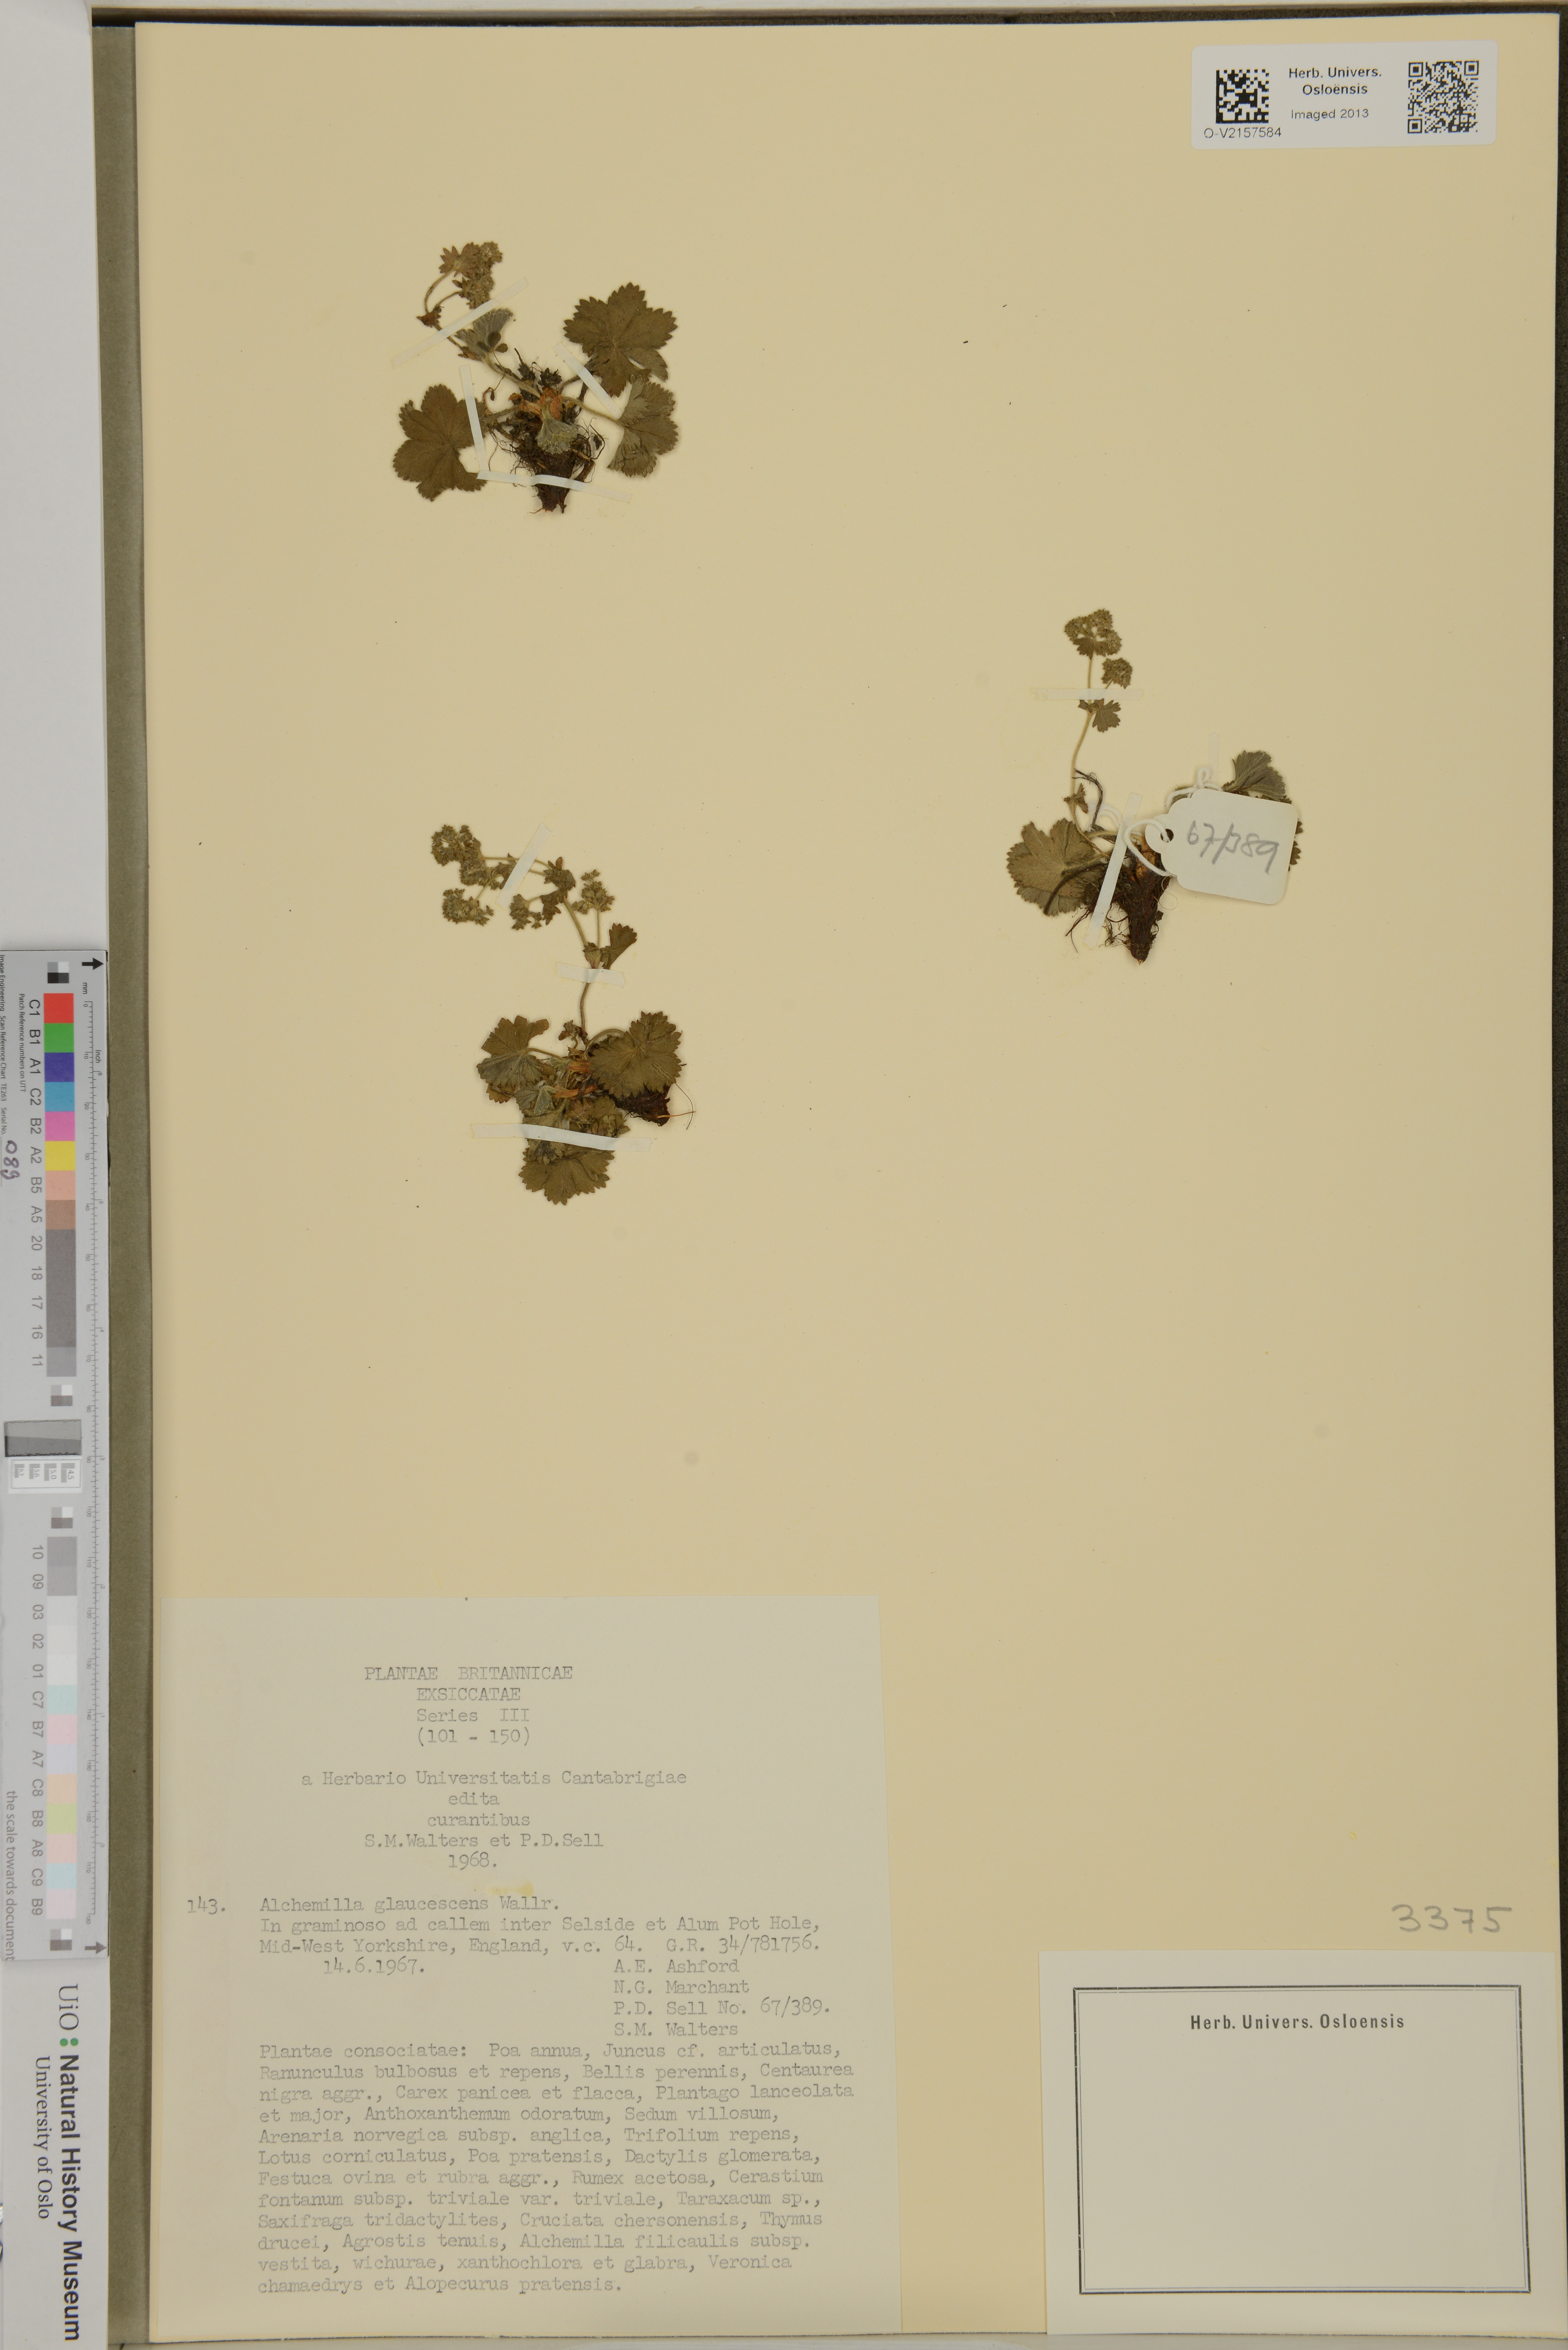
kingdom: Plantae
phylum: Tracheophyta
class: Magnoliopsida
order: Rosales
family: Rosaceae
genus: Alchemilla
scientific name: Alchemilla glaucescens
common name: Silky lady's mantle
